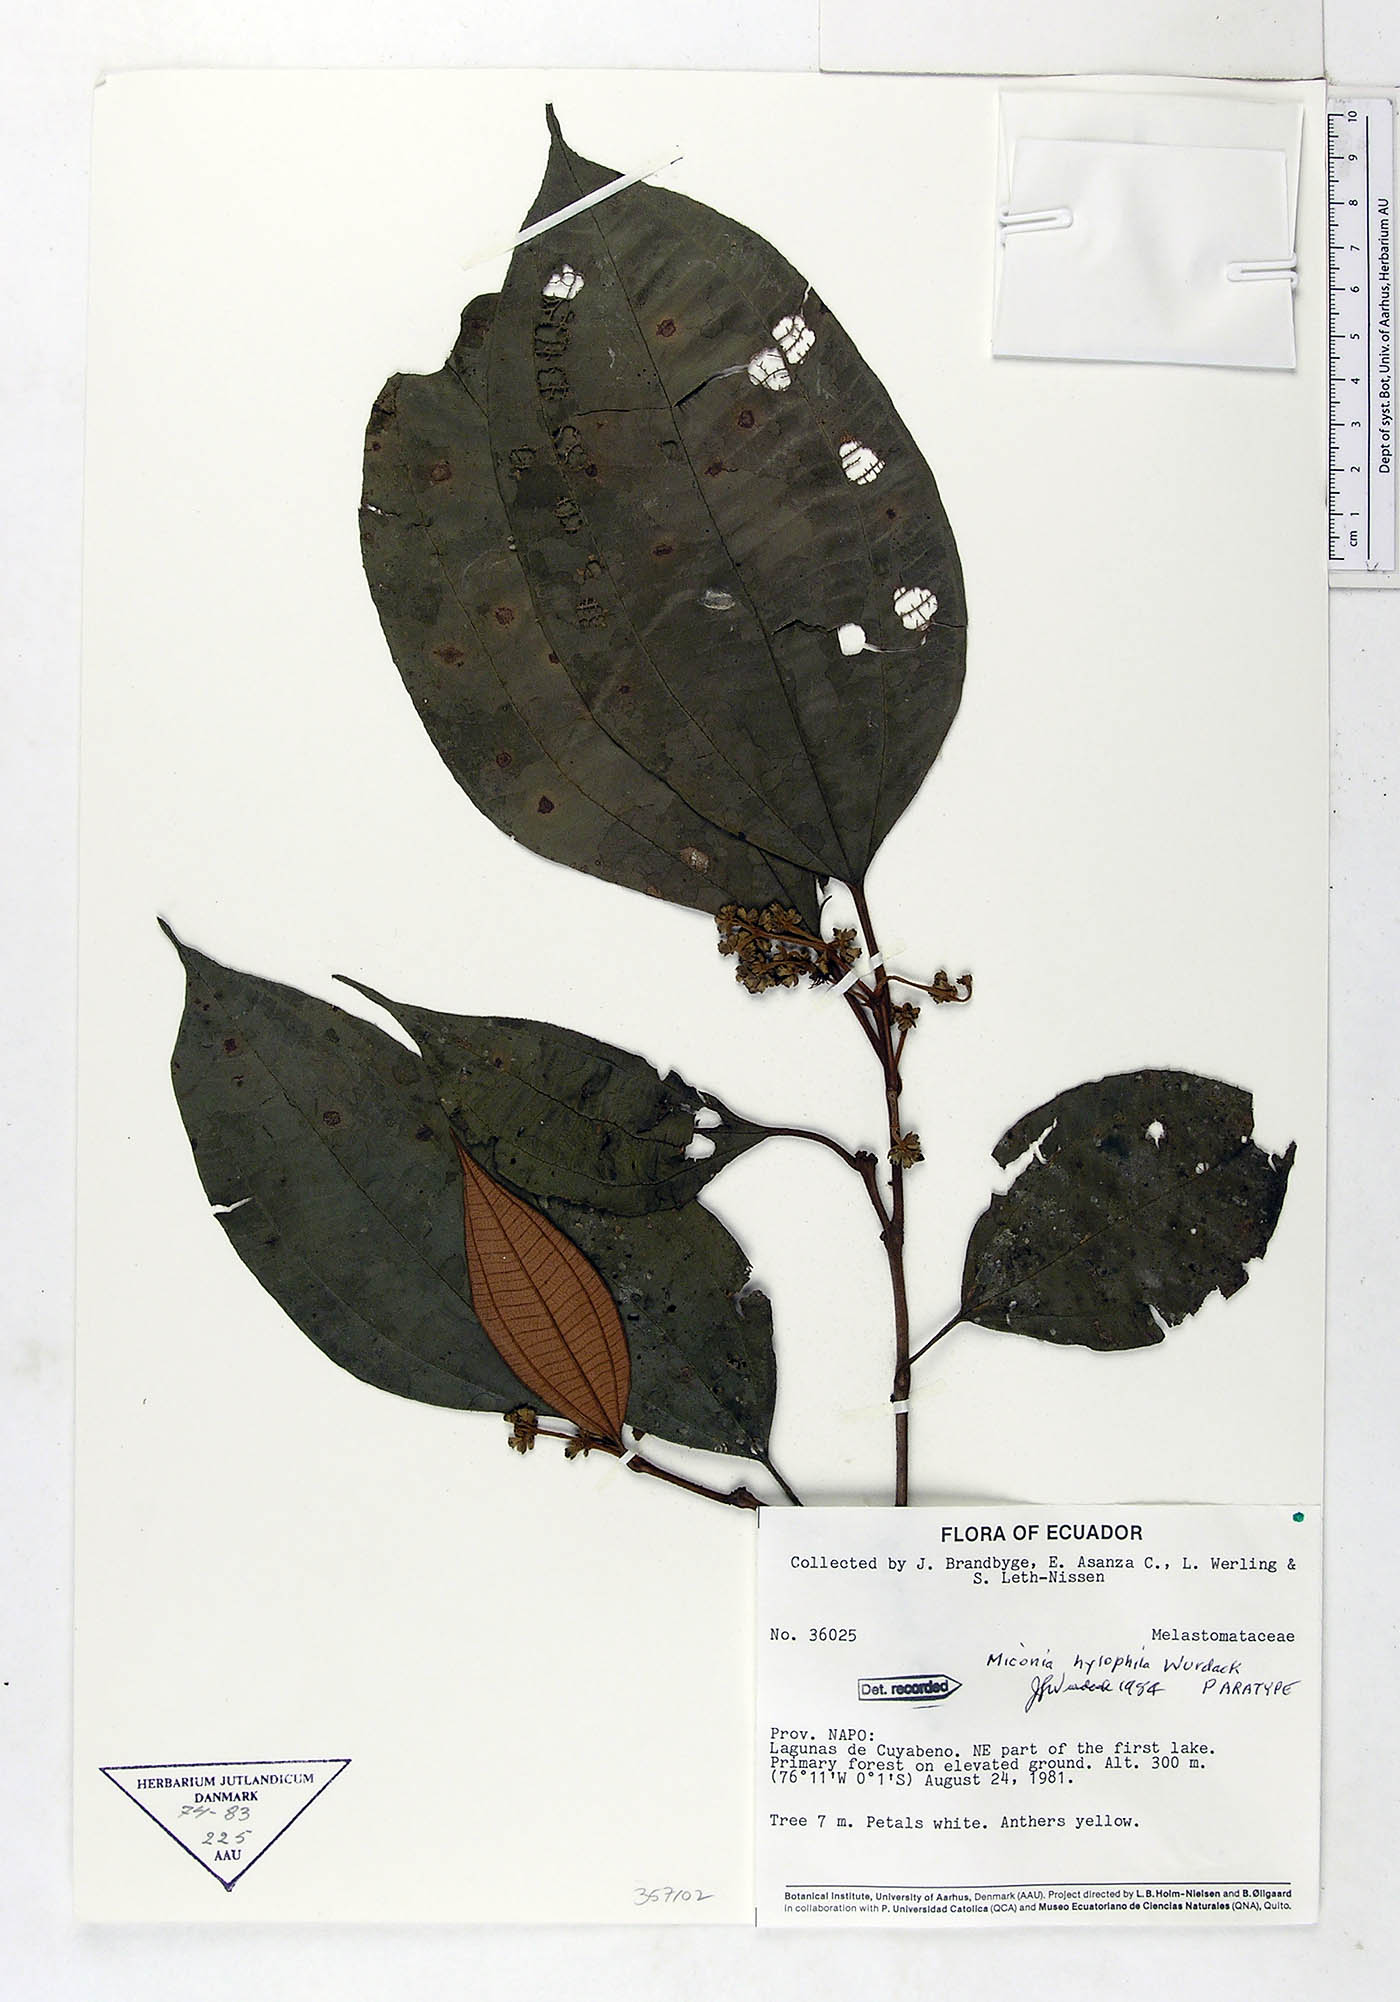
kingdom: Plantae
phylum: Tracheophyta
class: Magnoliopsida
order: Myrtales
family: Melastomataceae
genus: Miconia
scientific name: Miconia hylophila
